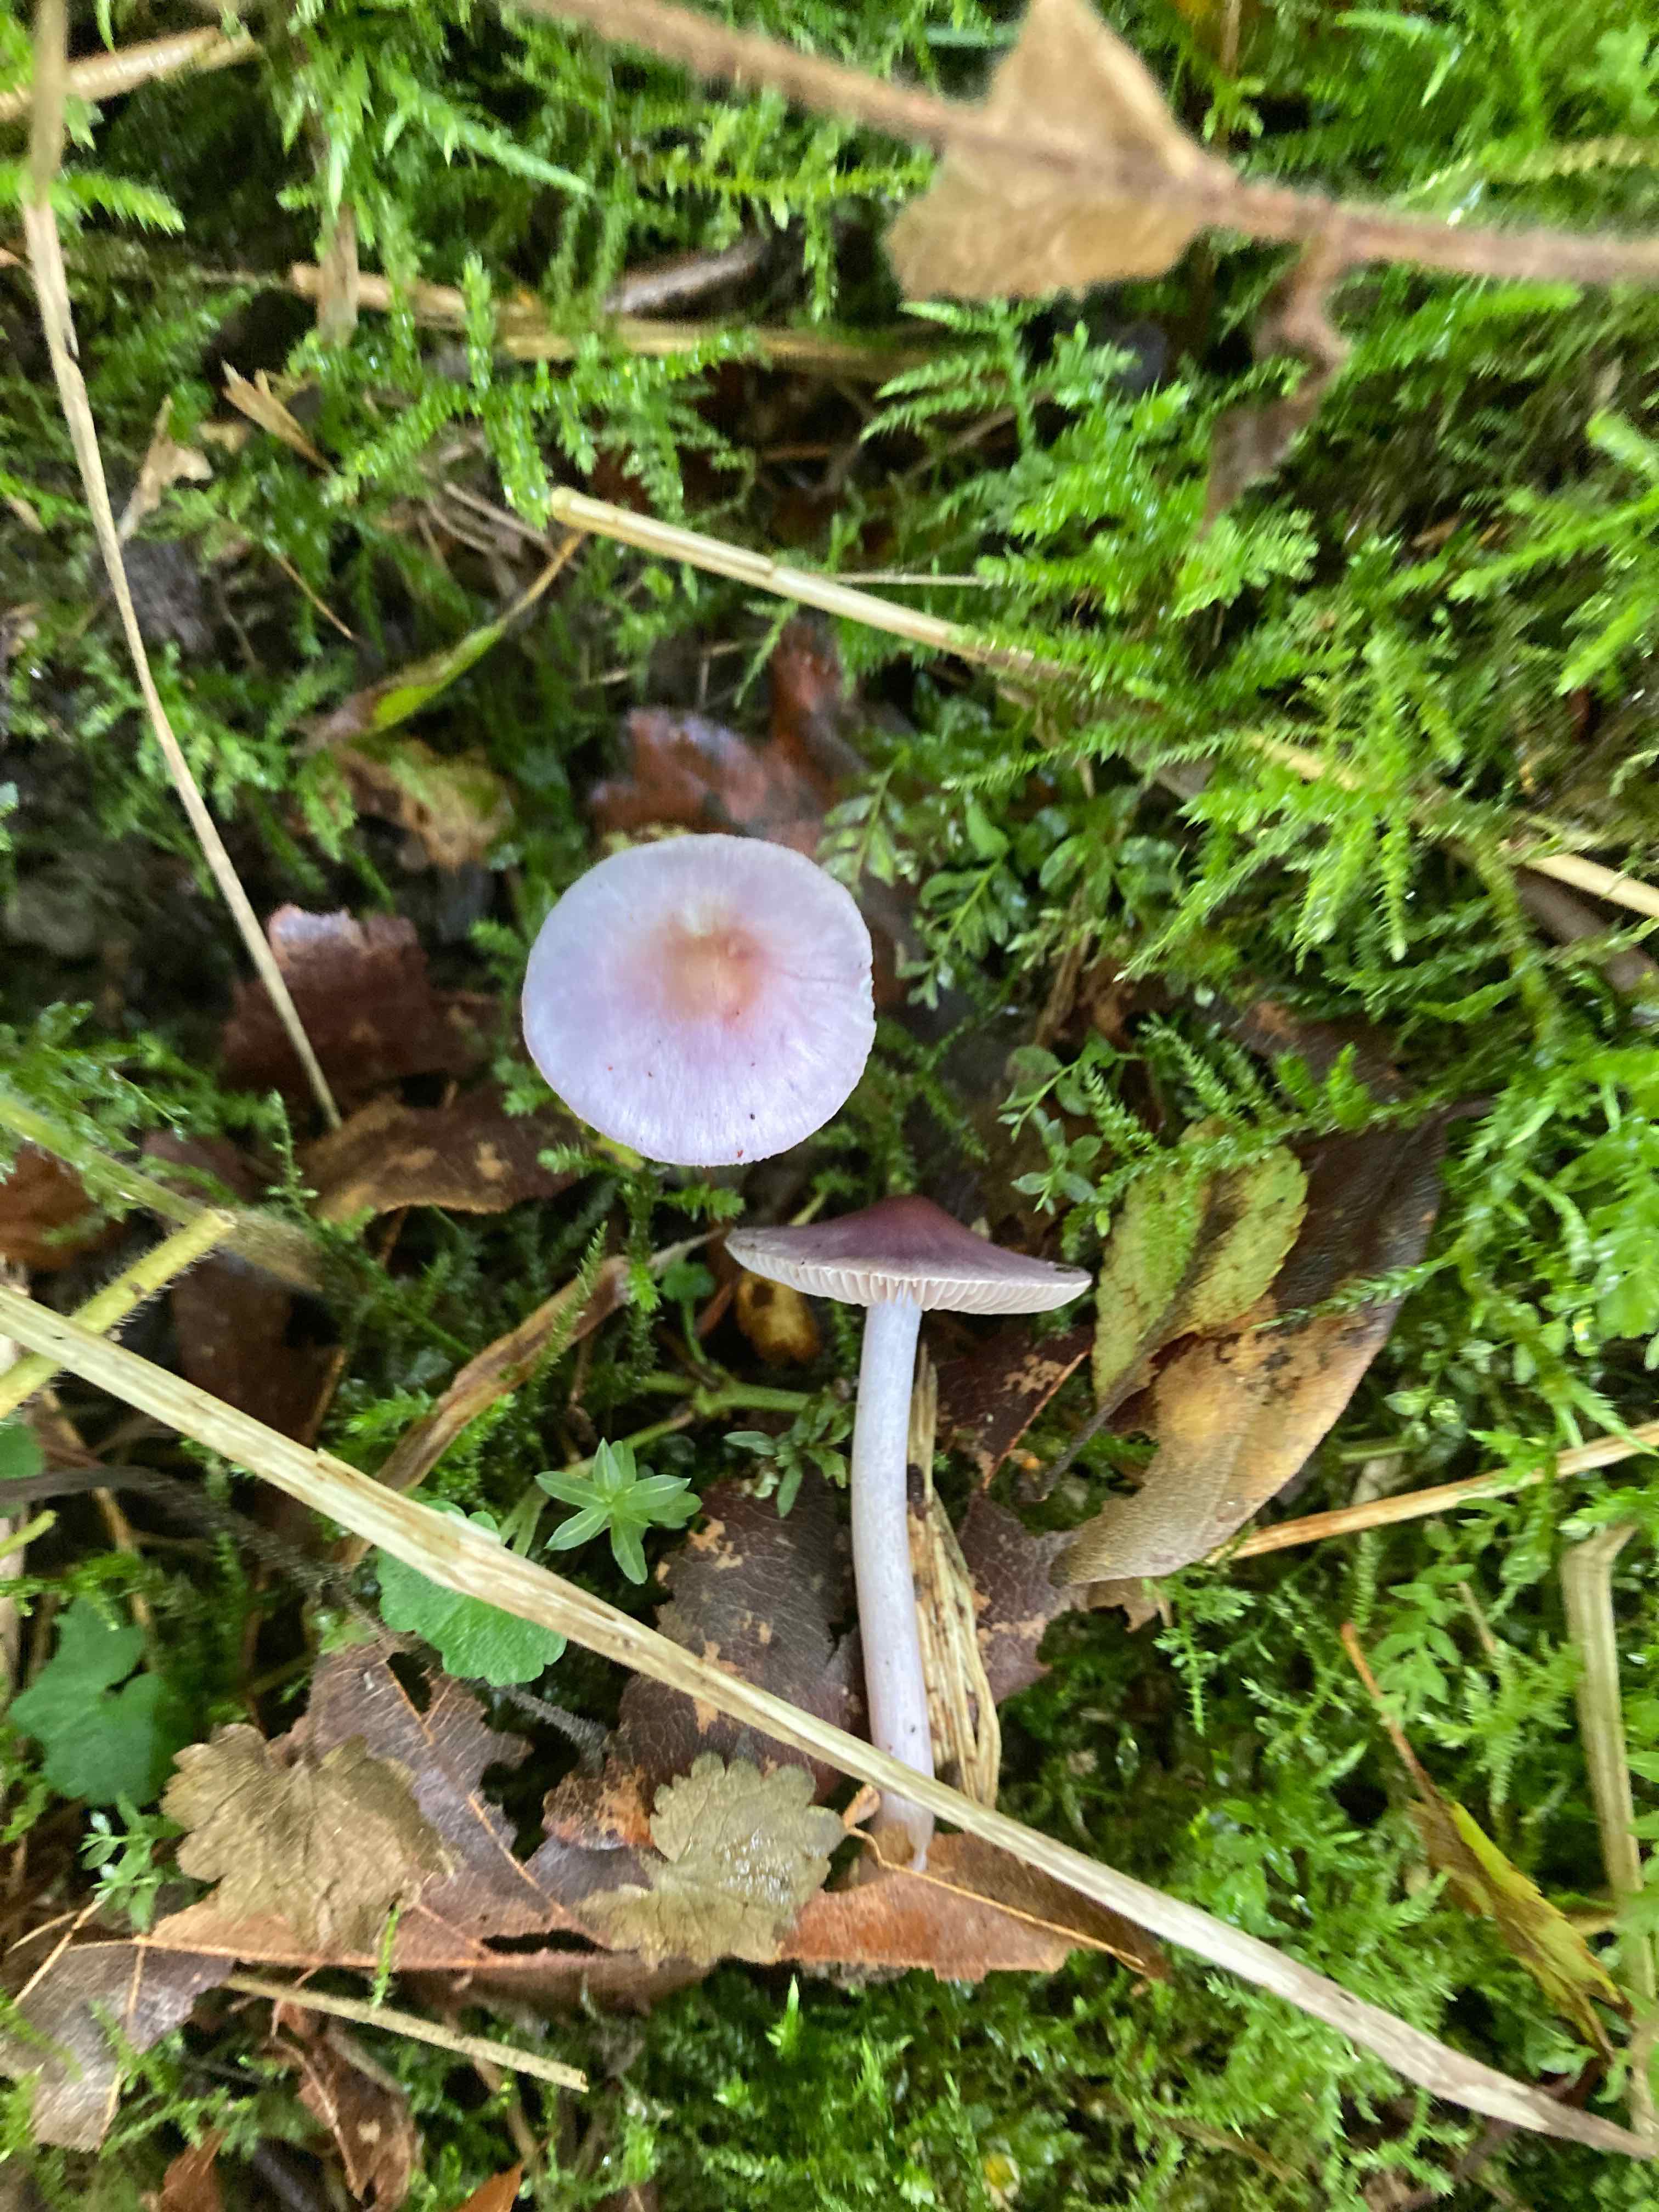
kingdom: Fungi
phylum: Basidiomycota
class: Agaricomycetes
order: Agaricales
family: Inocybaceae
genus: Inocybe
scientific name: Inocybe geophylla
